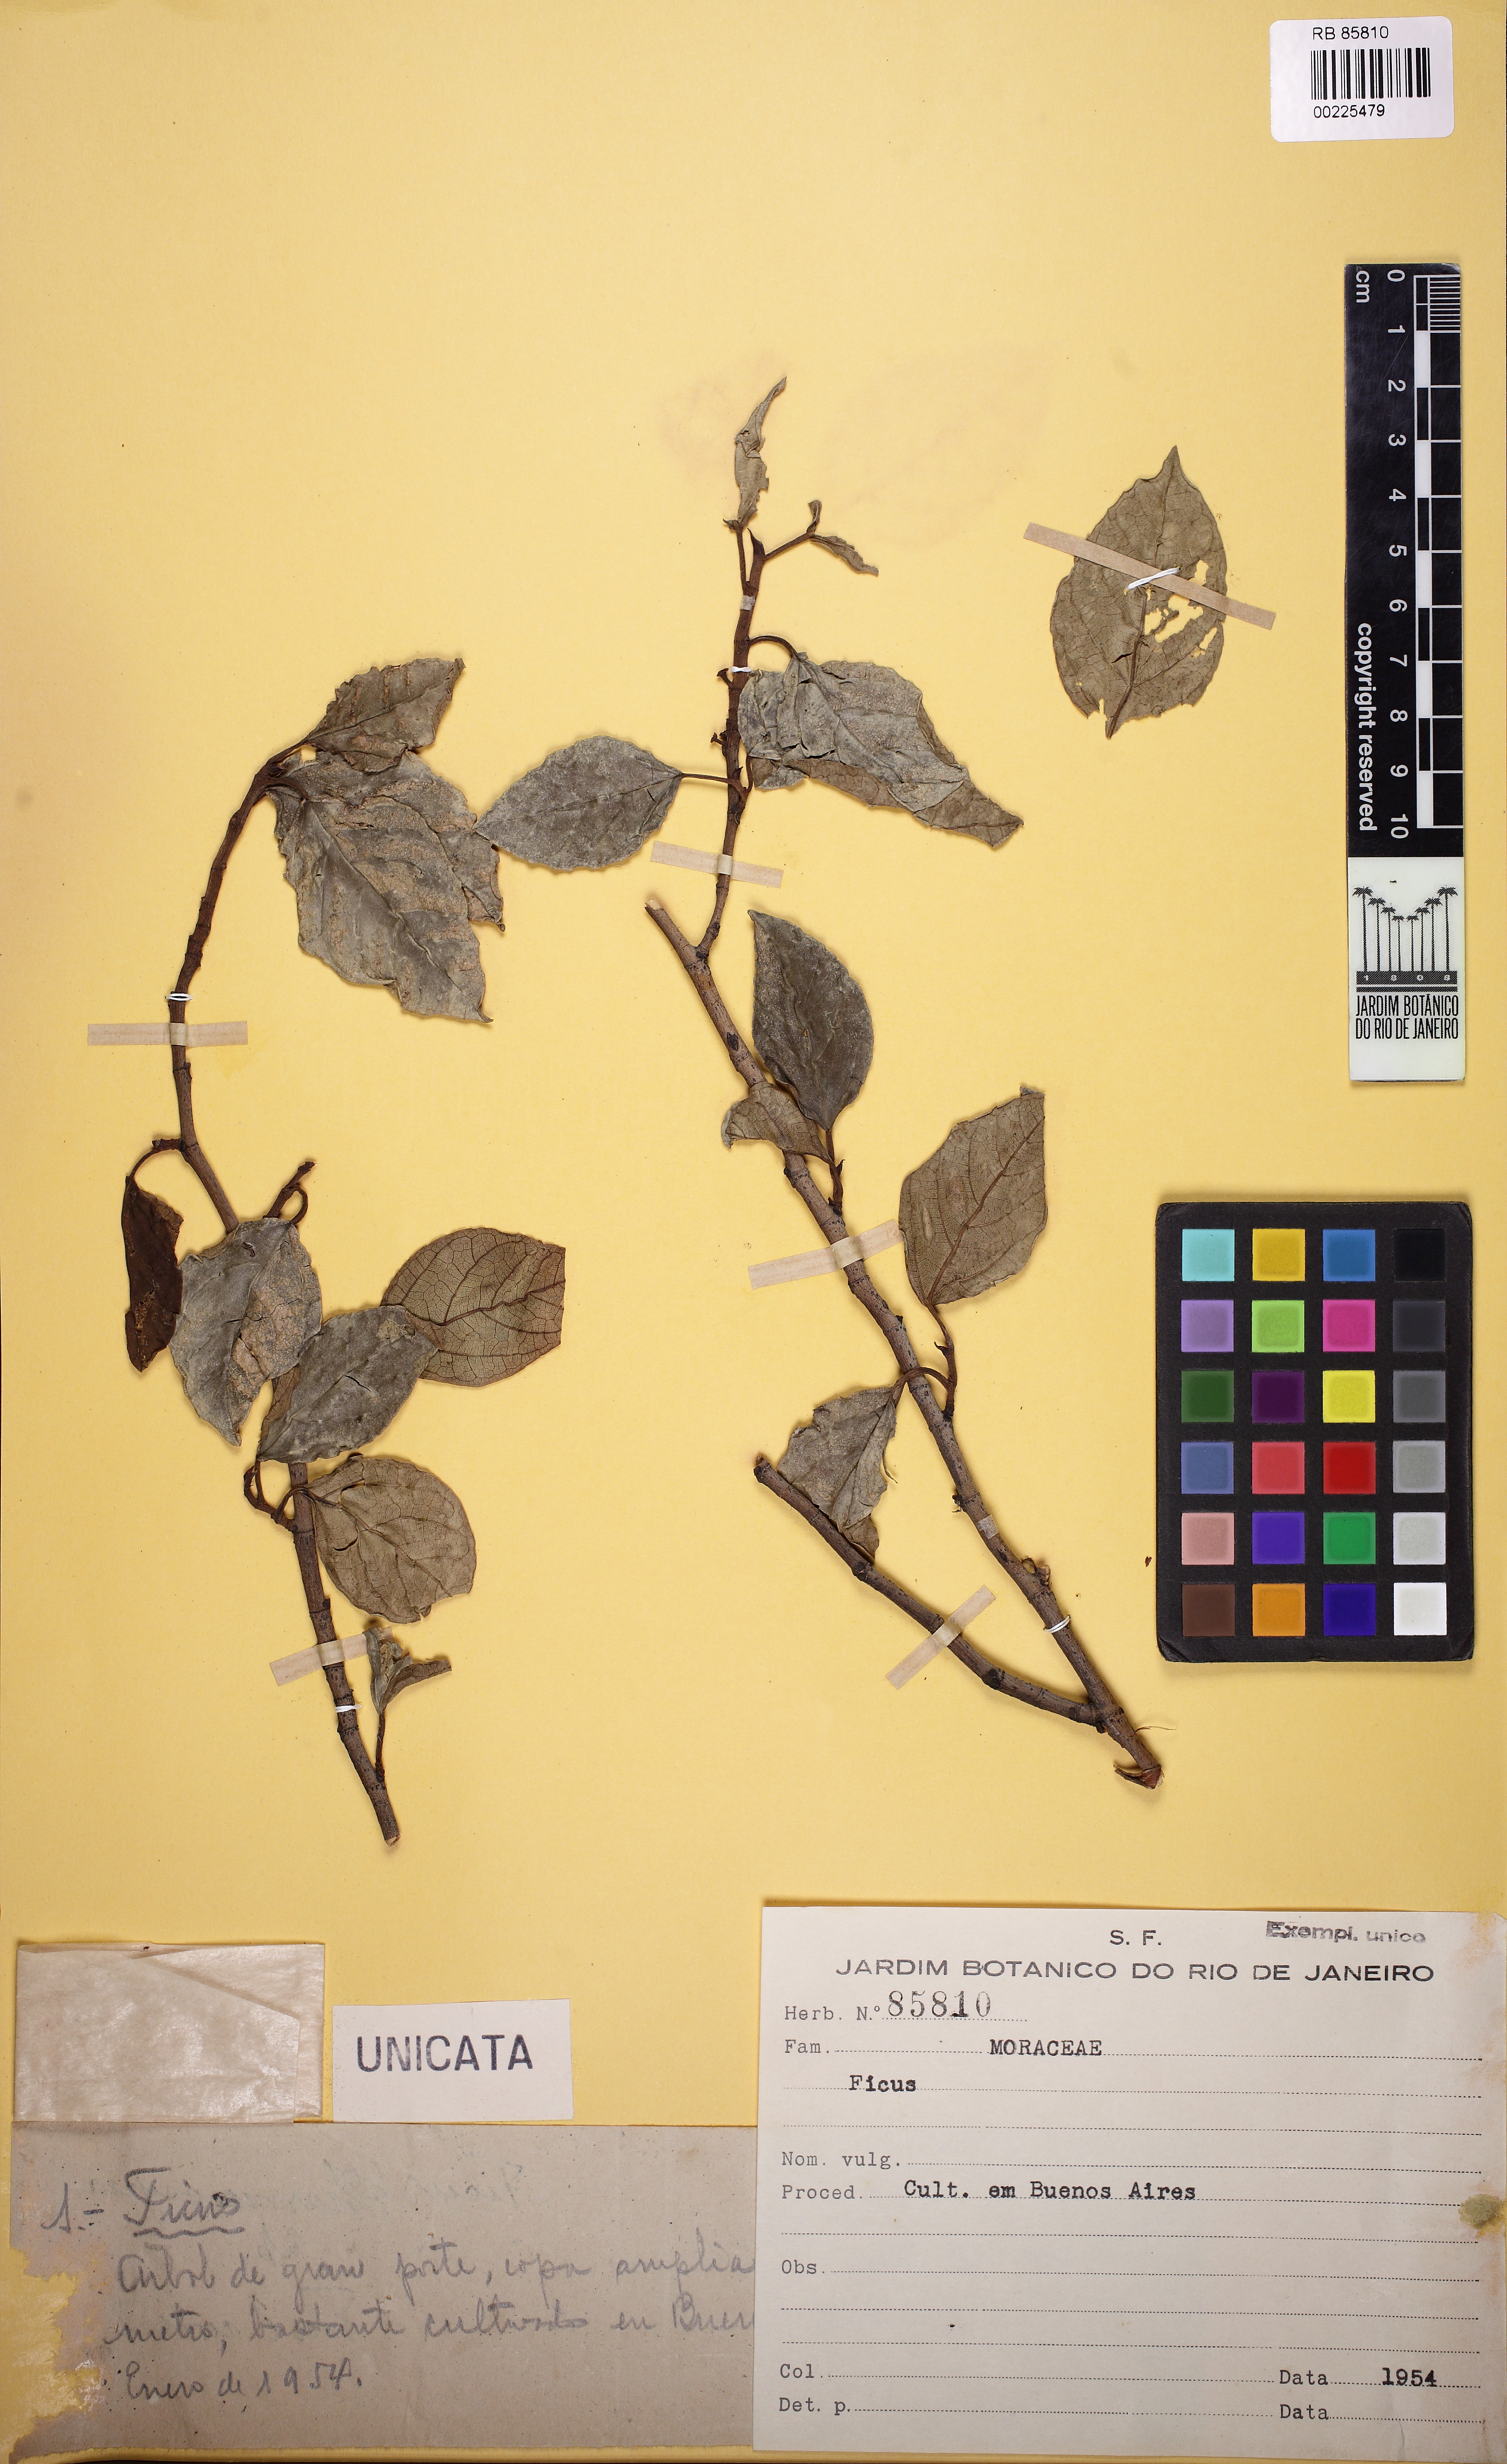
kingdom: Plantae
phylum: Tracheophyta
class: Magnoliopsida
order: Rosales
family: Moraceae
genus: Ficus
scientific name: Ficus
